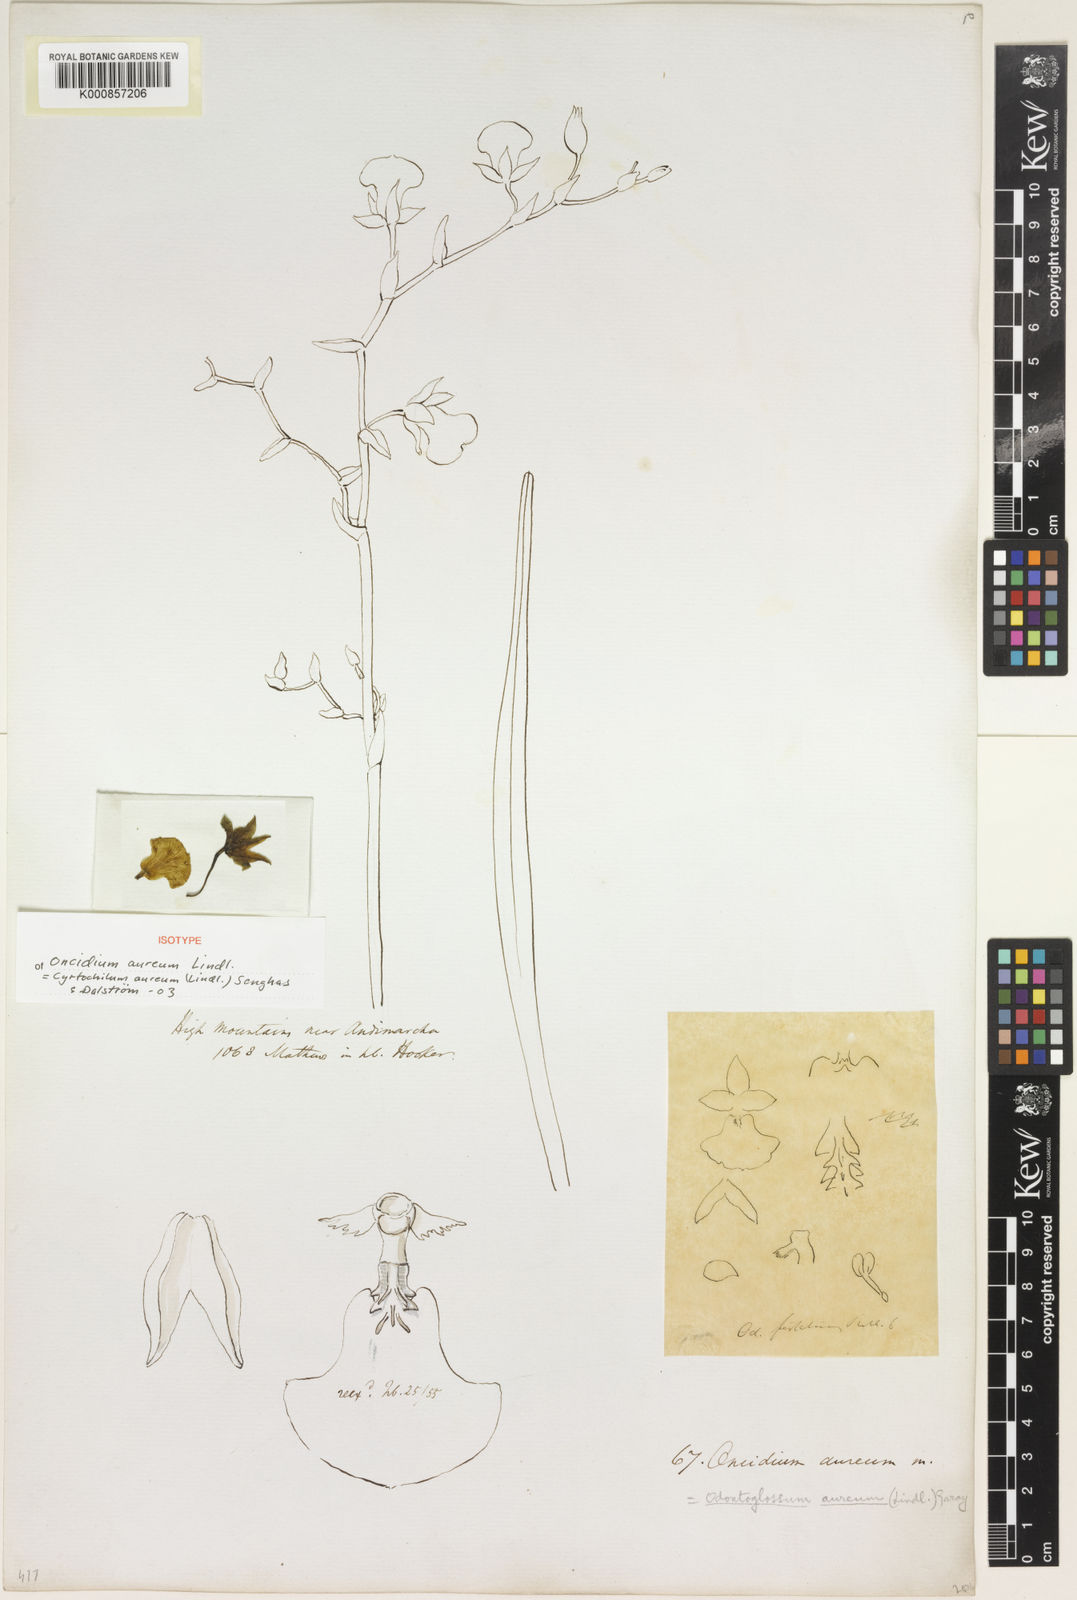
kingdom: Plantae
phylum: Tracheophyta
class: Liliopsida
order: Asparagales
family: Orchidaceae
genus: Cyrtochilum
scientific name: Cyrtochilum aureum
